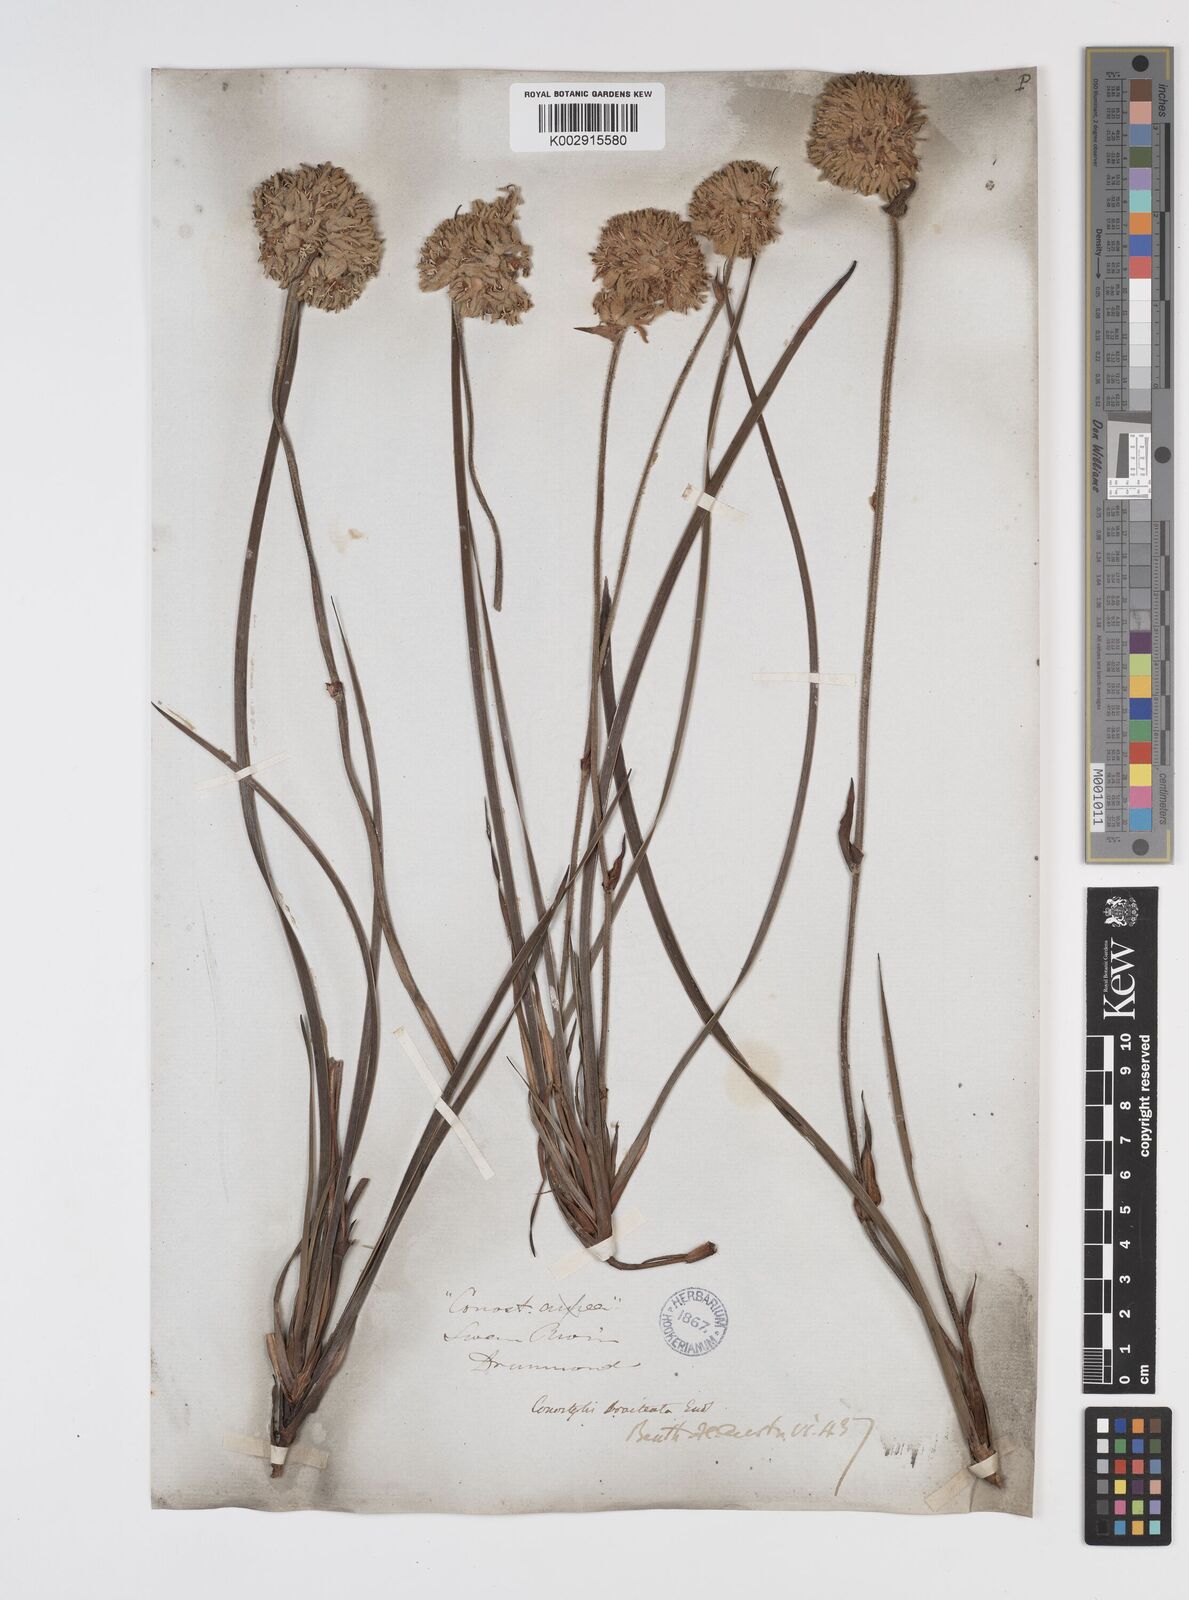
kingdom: Plantae
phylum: Tracheophyta
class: Liliopsida
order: Commelinales
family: Haemodoraceae
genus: Conostylis
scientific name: Conostylis bracteata
